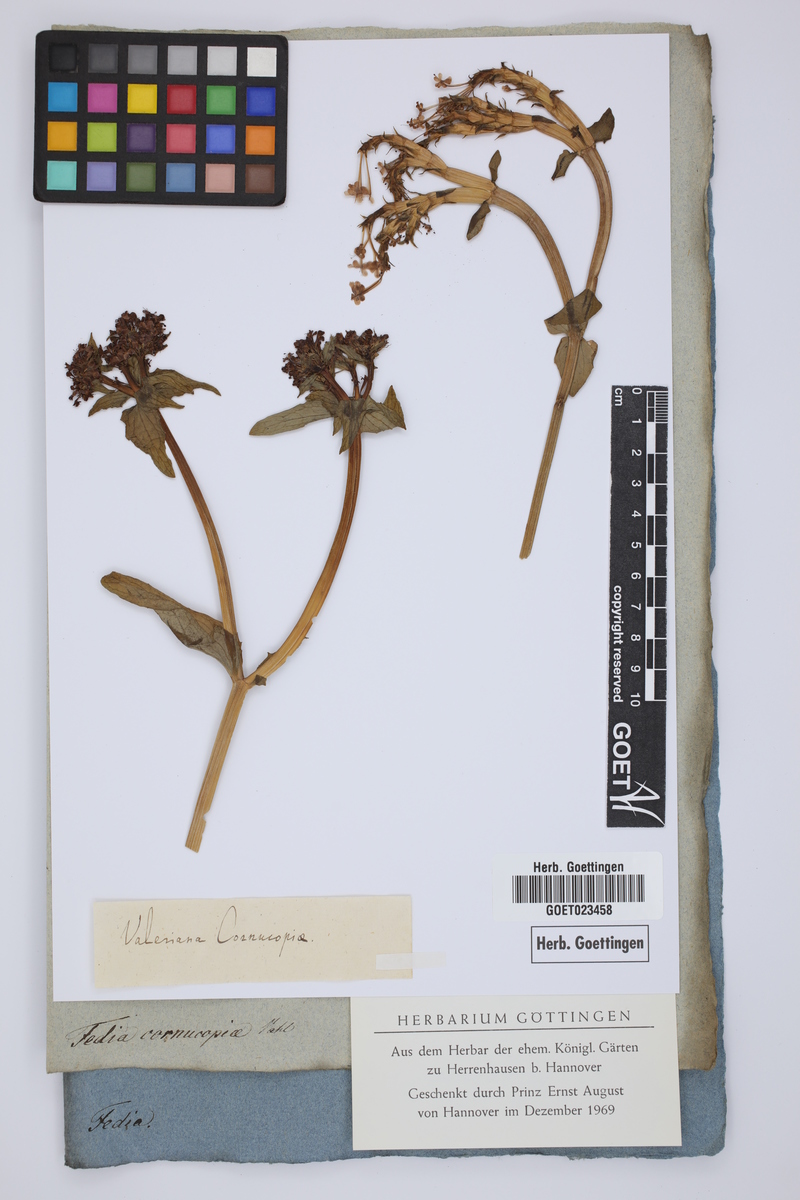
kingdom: Plantae
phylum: Tracheophyta
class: Magnoliopsida
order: Dipsacales
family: Caprifoliaceae
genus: Fedia
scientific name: Fedia cornucopiae
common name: Horn-of-plenty
